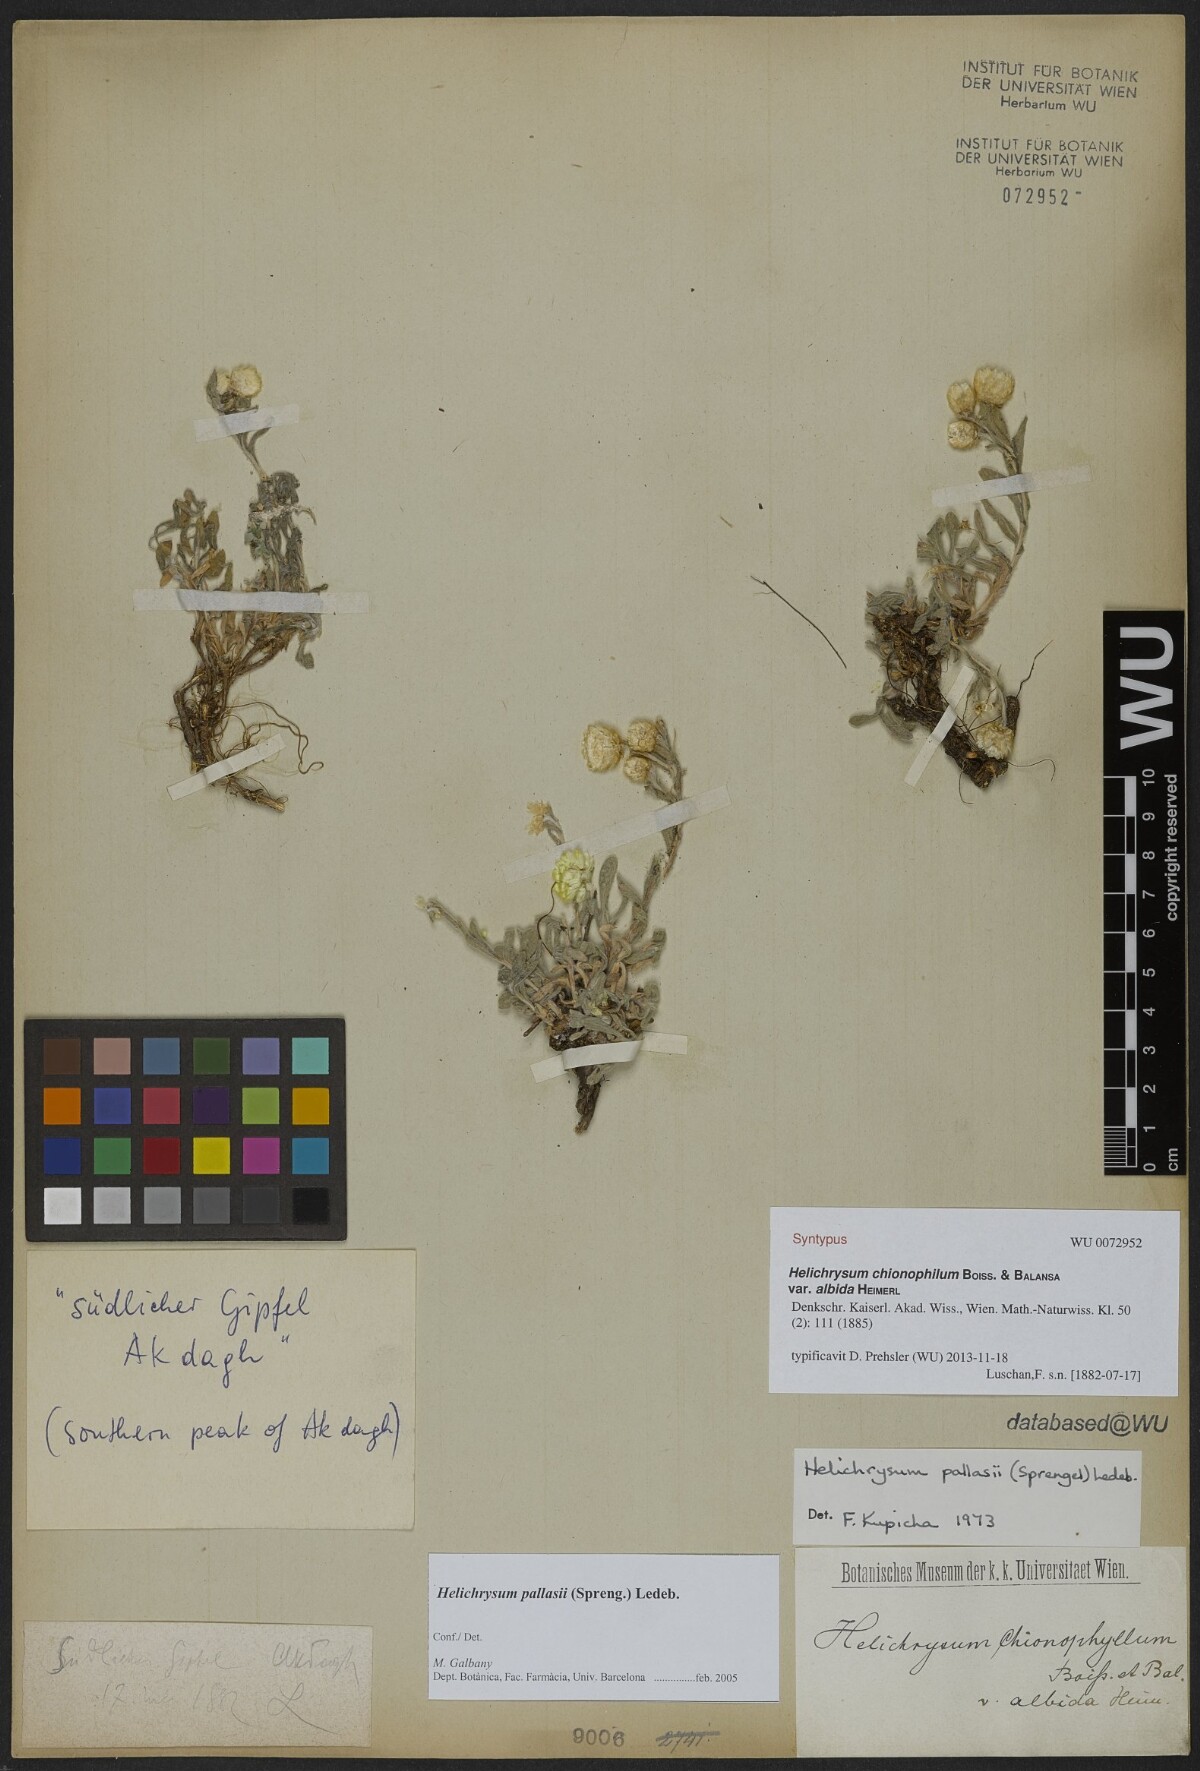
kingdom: Plantae
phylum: Tracheophyta
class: Magnoliopsida
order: Asterales
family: Asteraceae
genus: Helichrysum
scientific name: Helichrysum psychrophilum
